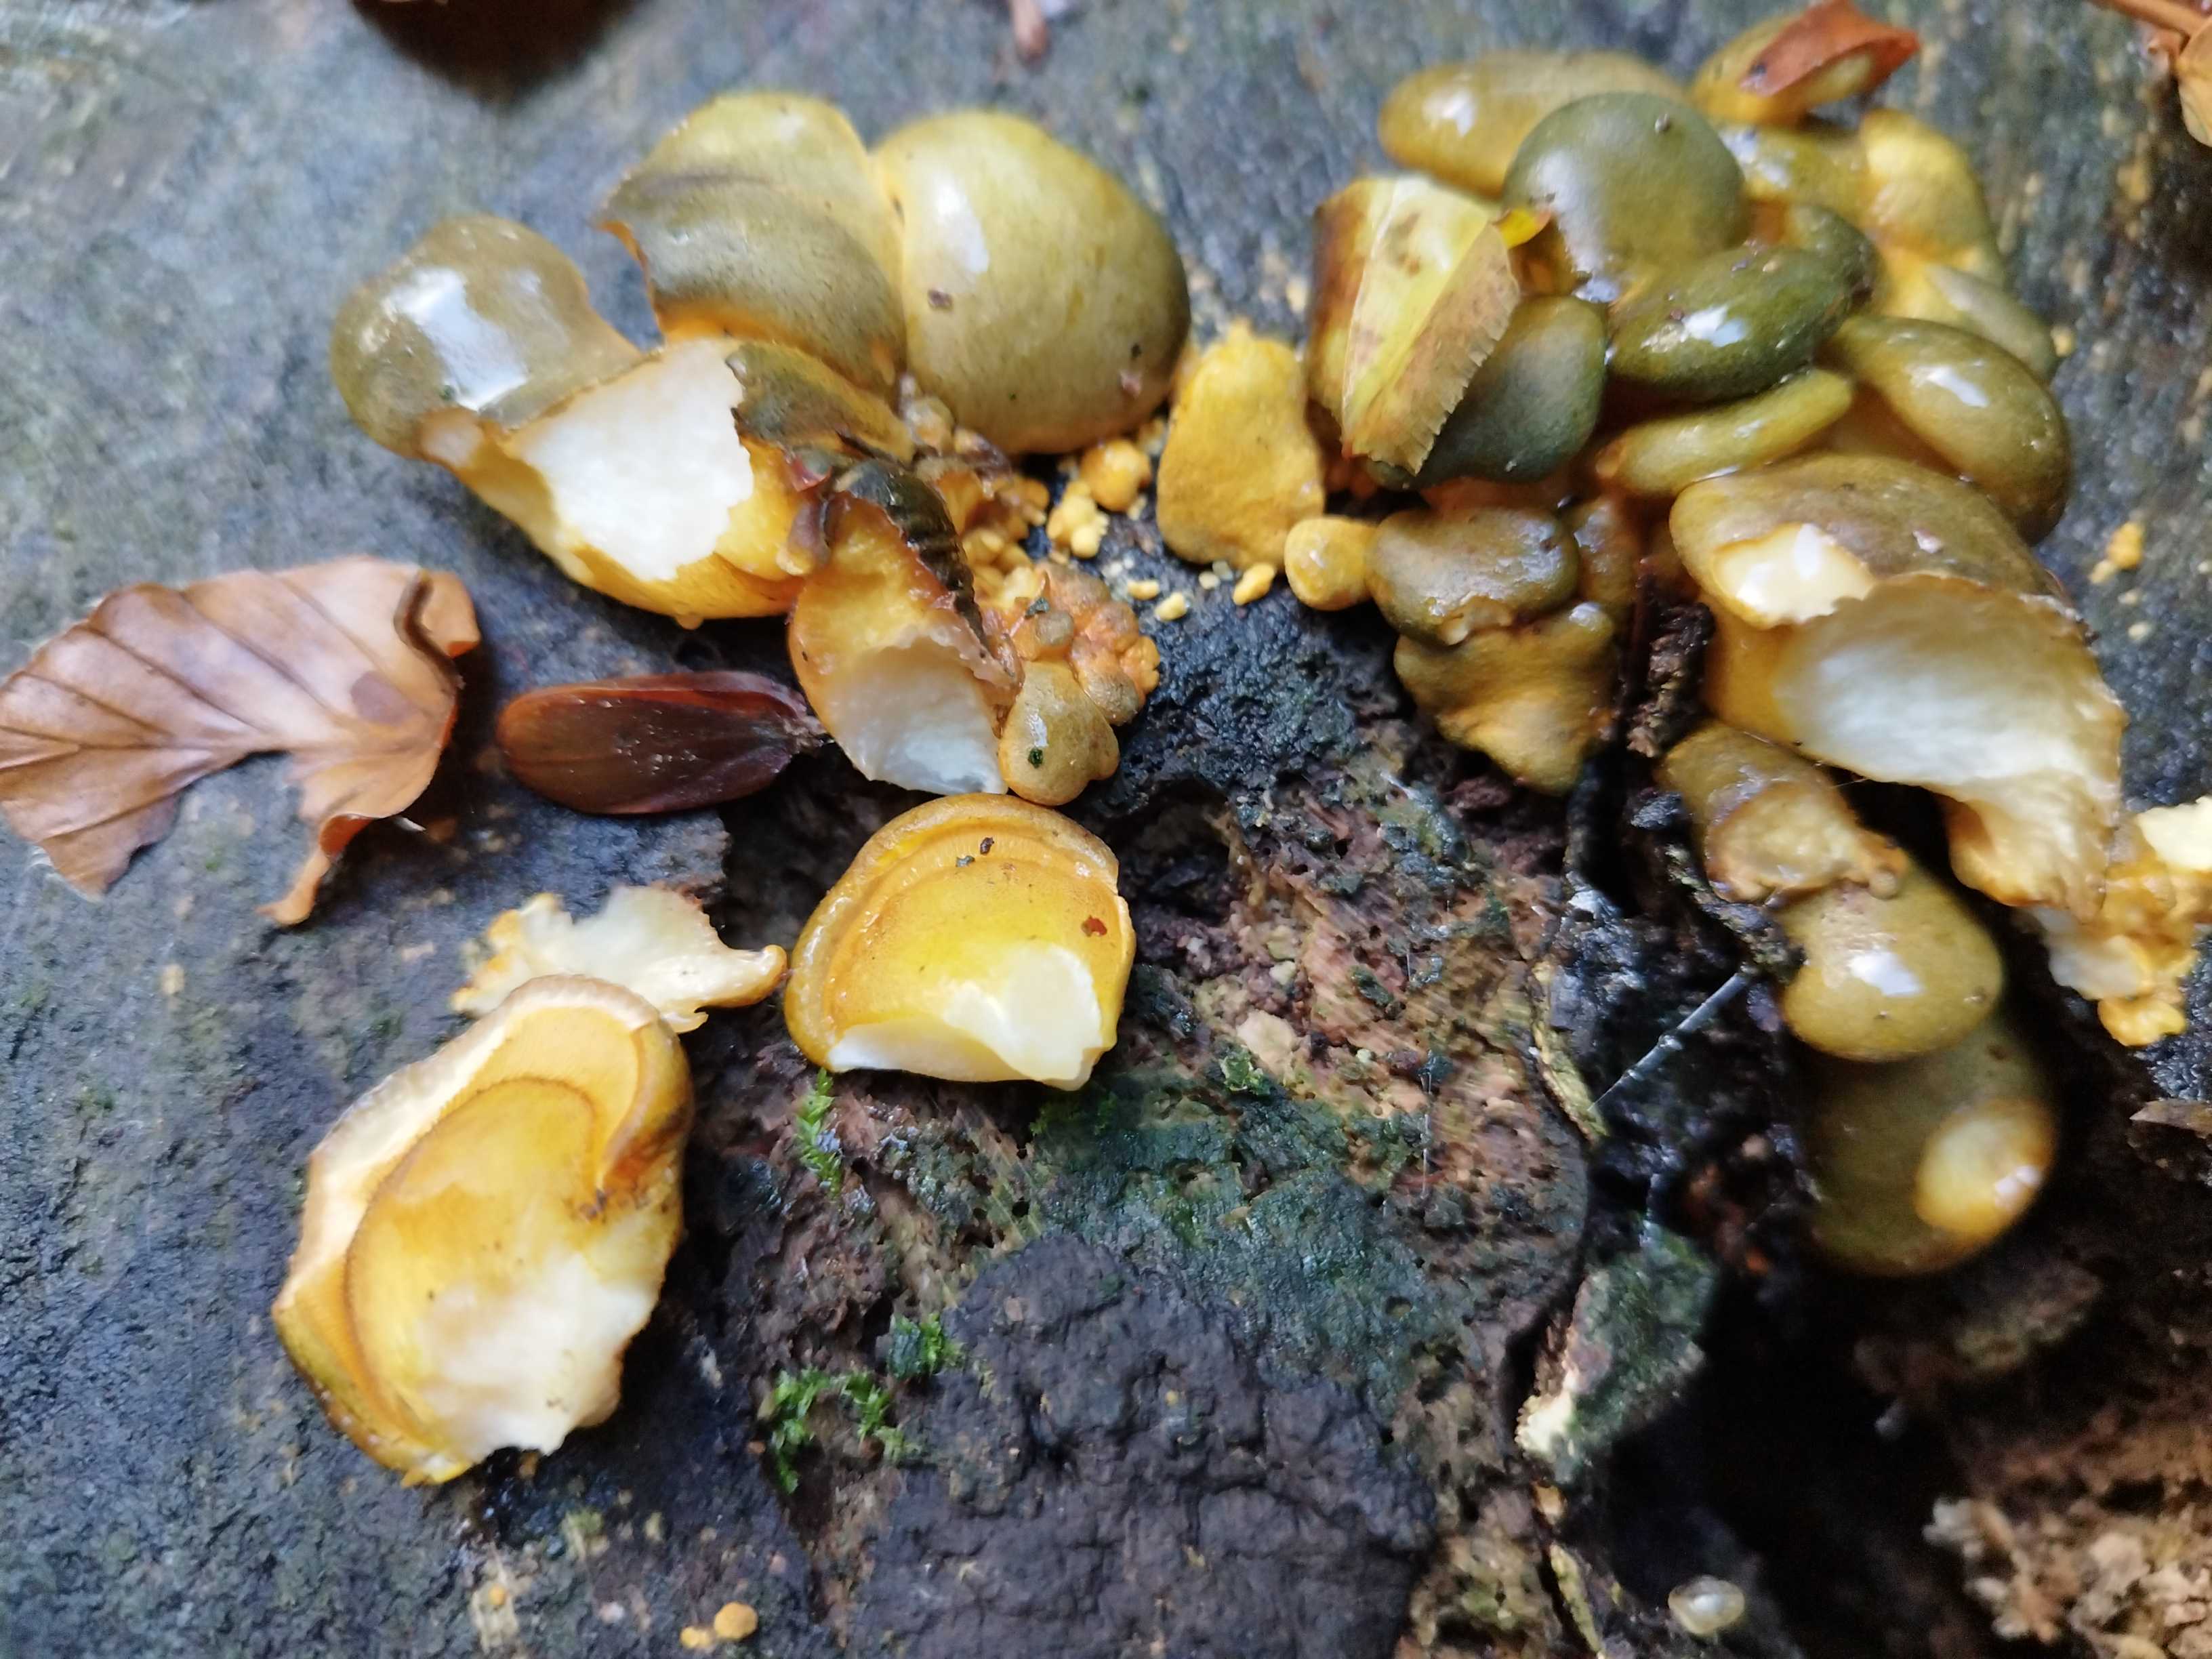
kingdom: Fungi
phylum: Basidiomycota
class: Agaricomycetes
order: Agaricales
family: Sarcomyxaceae
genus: Sarcomyxa
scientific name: Sarcomyxa serotina
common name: gummihat
